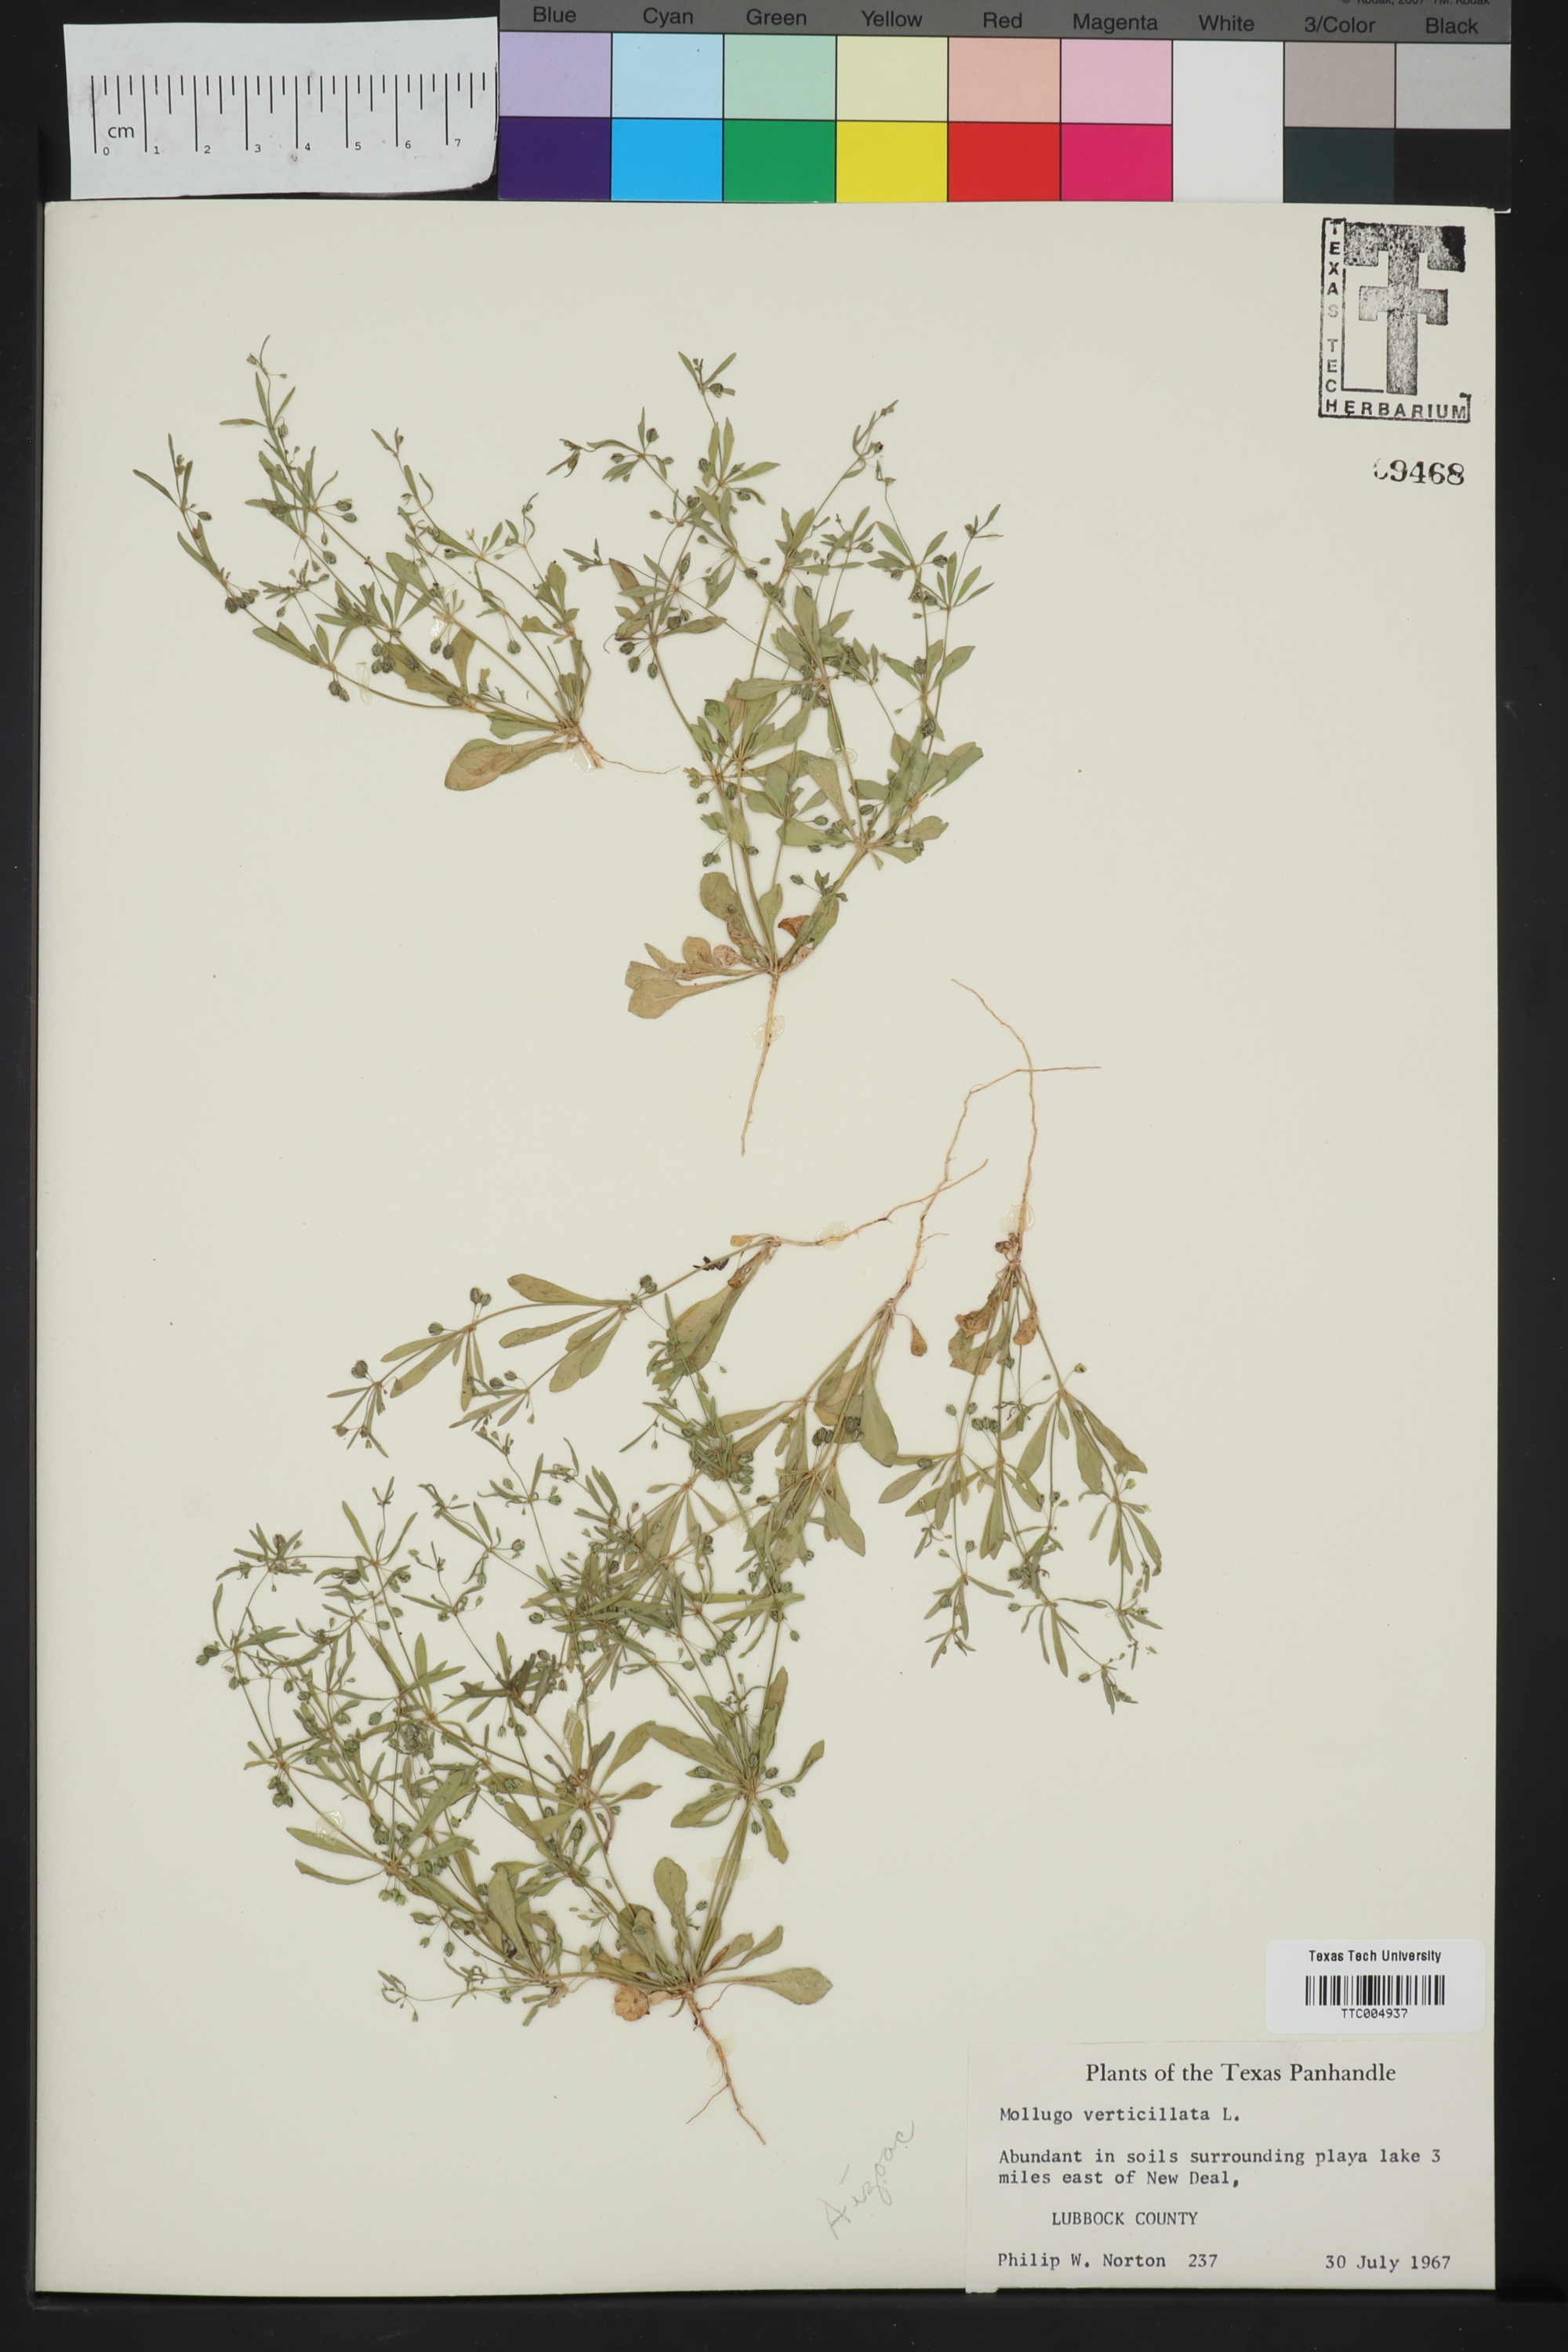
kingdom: Plantae
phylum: Tracheophyta
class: Magnoliopsida
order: Caryophyllales
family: Molluginaceae
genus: Mollugo
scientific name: Mollugo verticillata
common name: Green carpetweed
